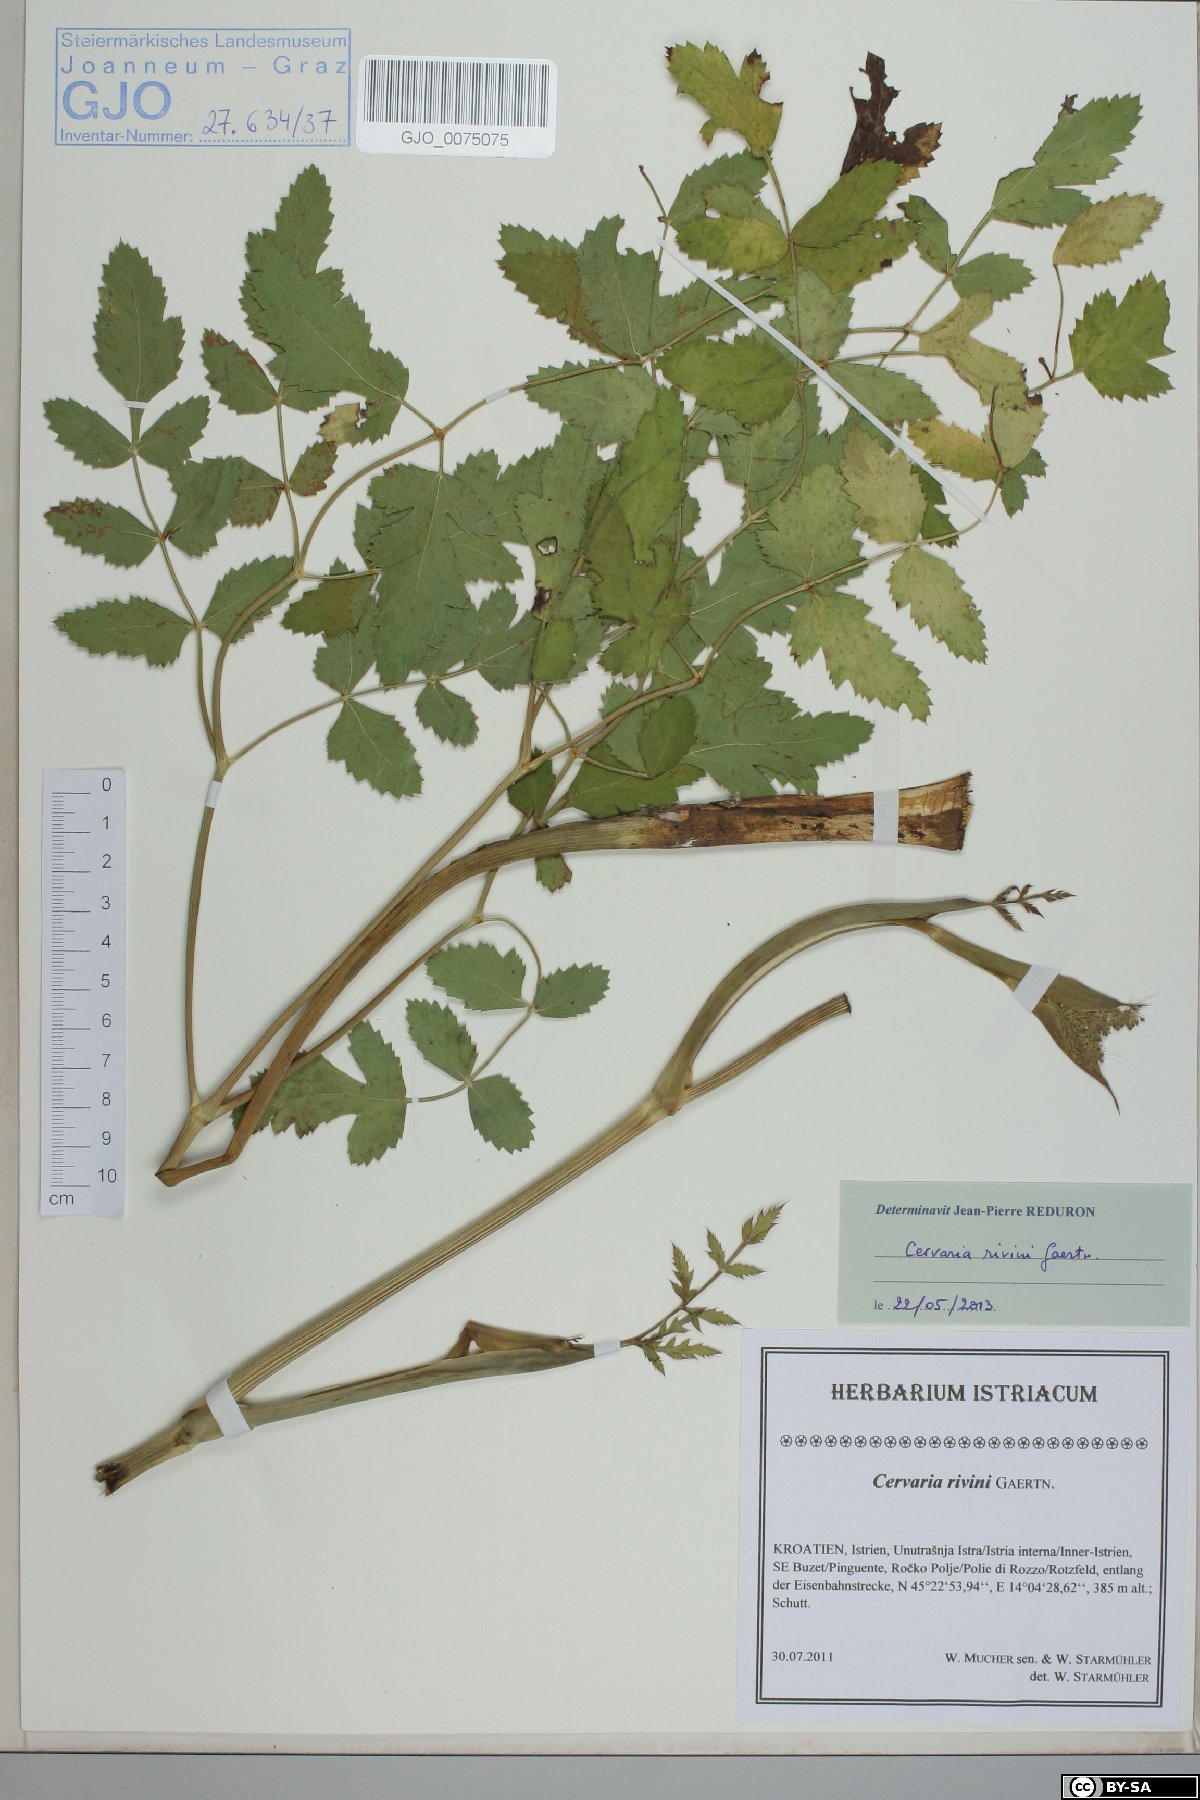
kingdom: Plantae
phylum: Tracheophyta
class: Magnoliopsida
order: Apiales
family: Apiaceae
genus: Cervaria
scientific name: Cervaria rivini
